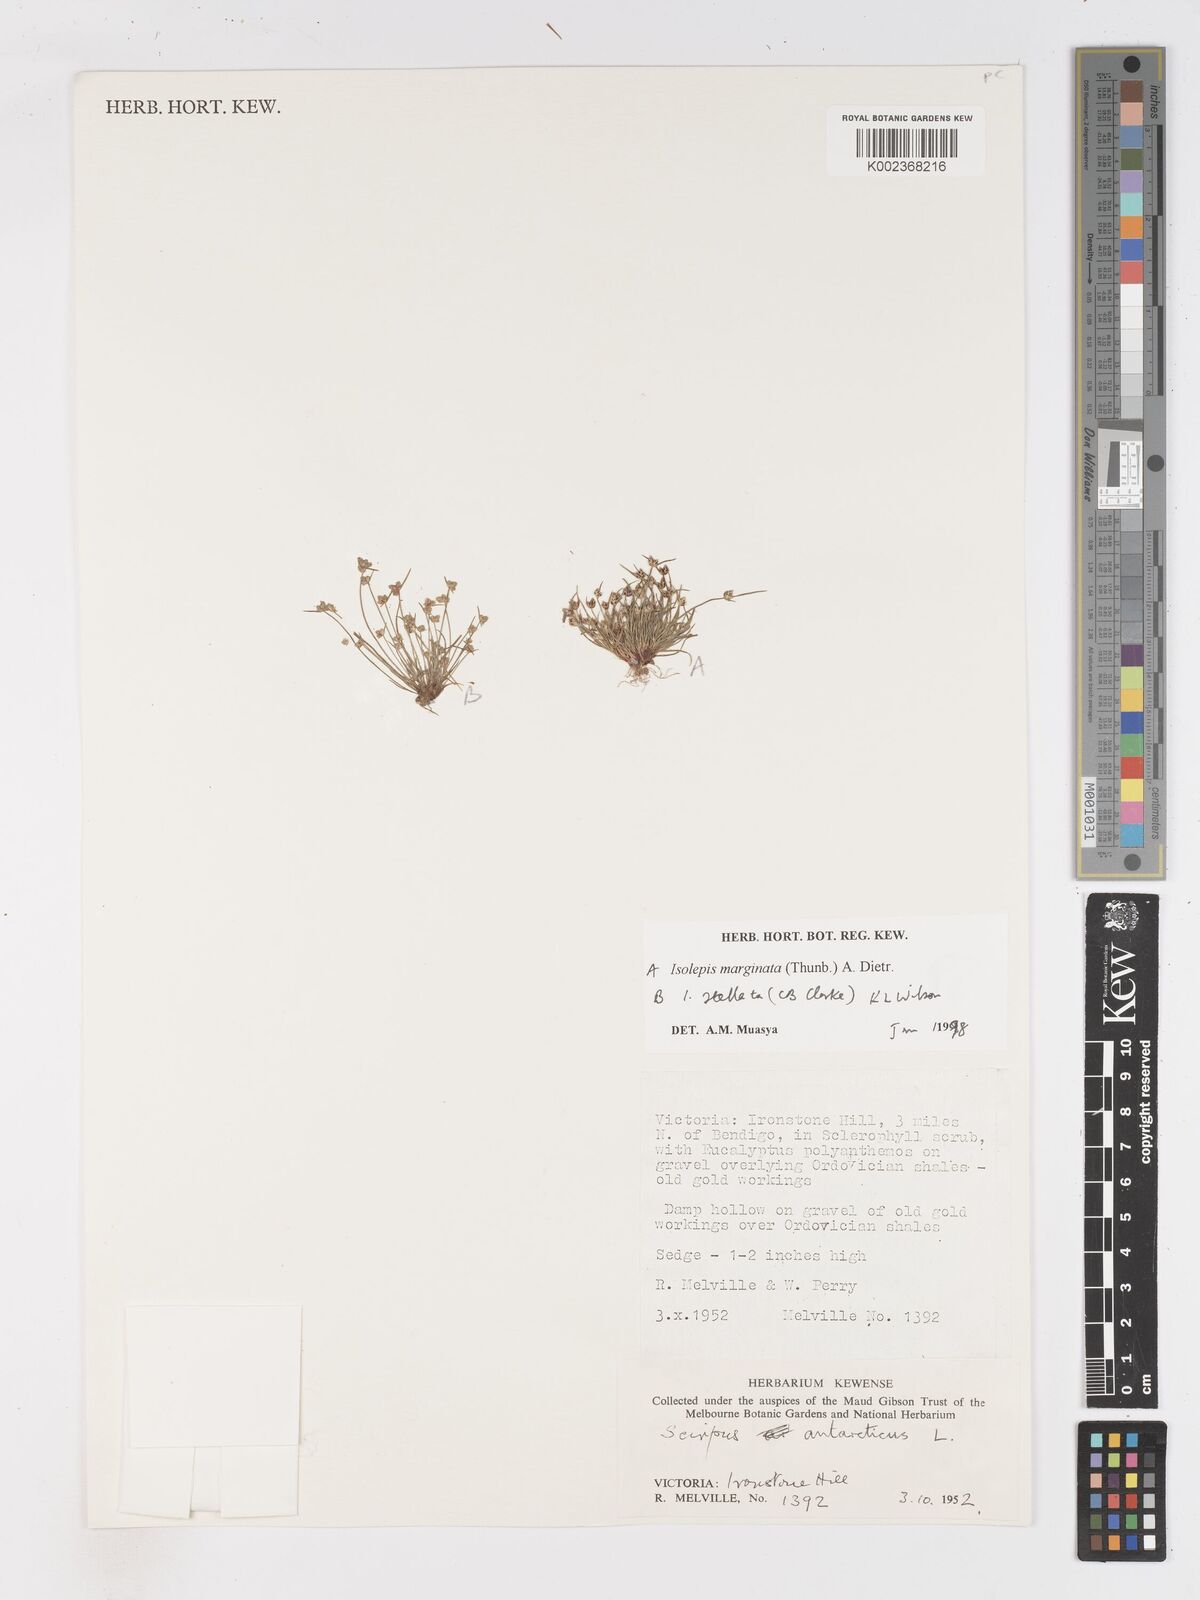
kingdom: Plantae
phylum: Tracheophyta
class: Liliopsida
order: Poales
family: Cyperaceae
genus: Isolepis
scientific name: Isolepis marginata
